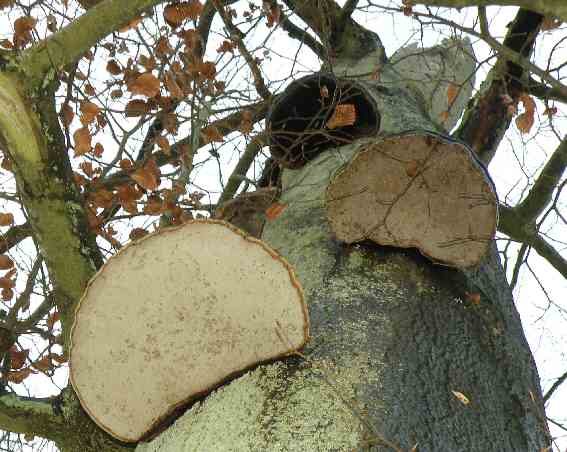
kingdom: Fungi
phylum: Basidiomycota
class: Agaricomycetes
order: Polyporales
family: Polyporaceae
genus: Fomes
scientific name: Fomes fomentarius
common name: tøndersvamp
